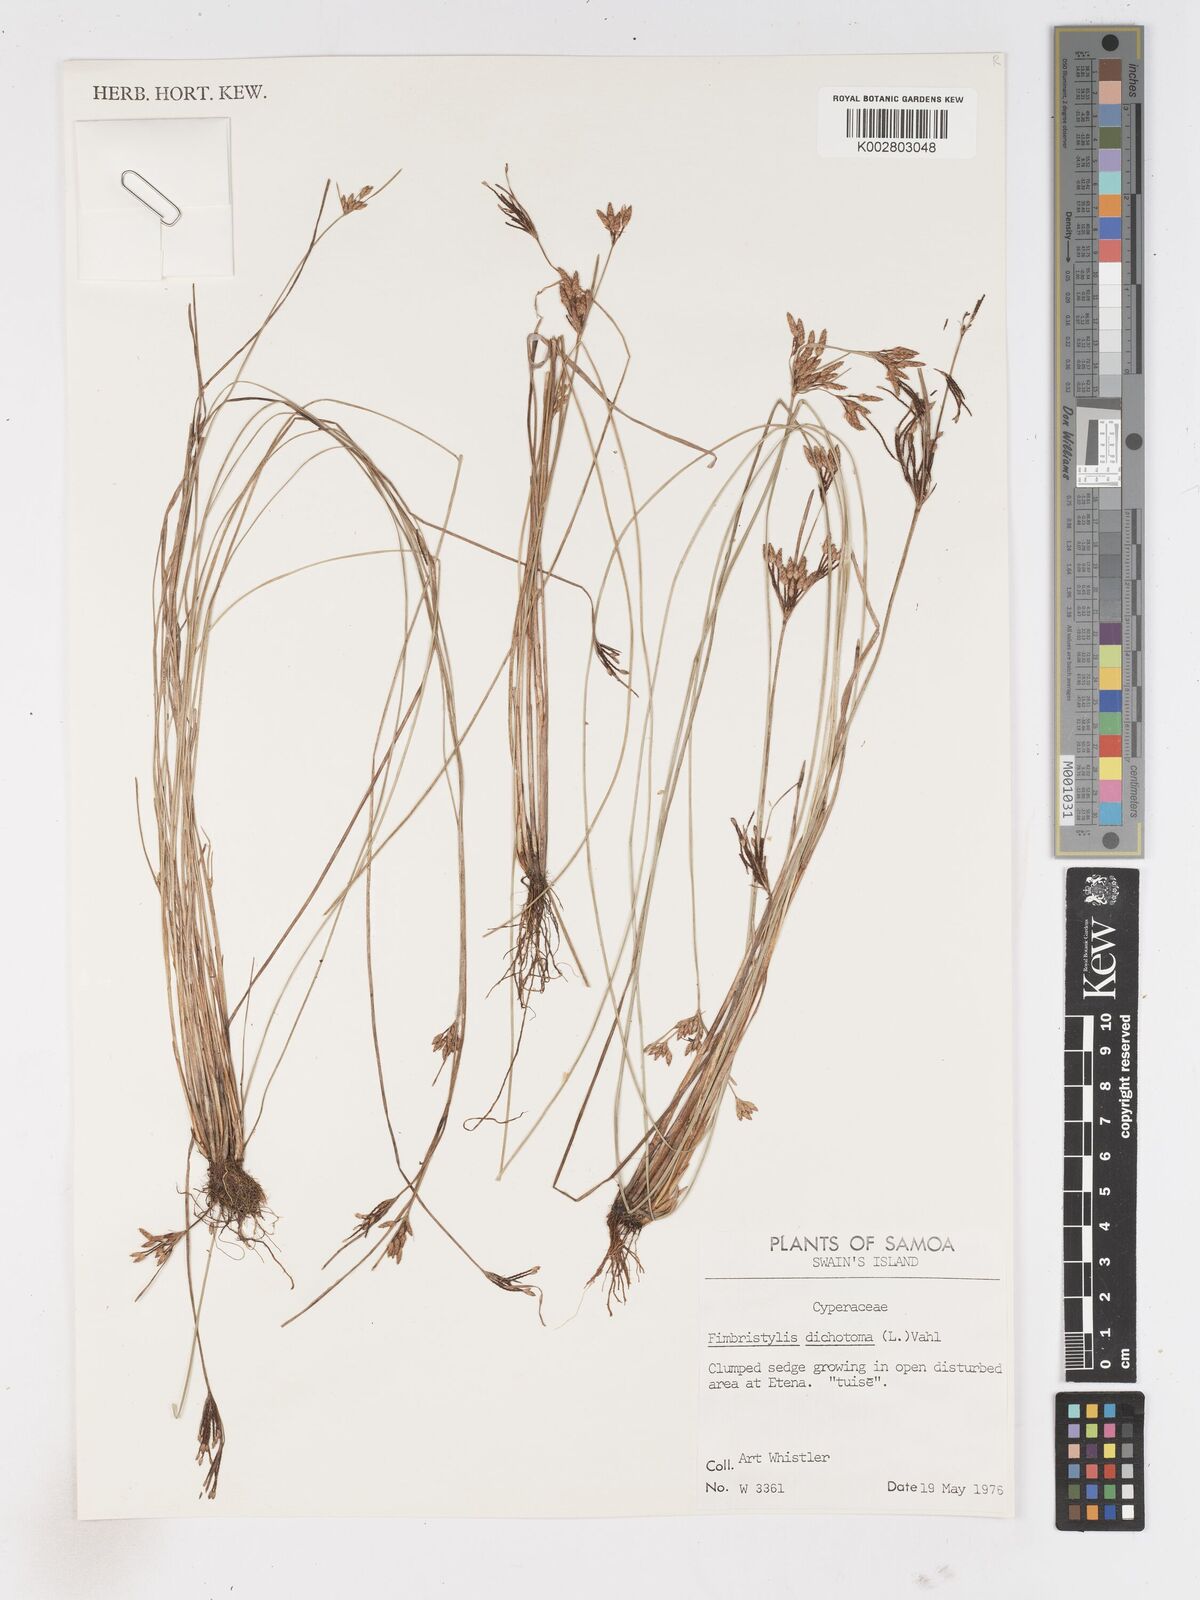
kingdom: Plantae
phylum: Tracheophyta
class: Liliopsida
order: Poales
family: Cyperaceae
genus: Fimbristylis
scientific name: Fimbristylis dichotoma
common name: Forked fimbry
